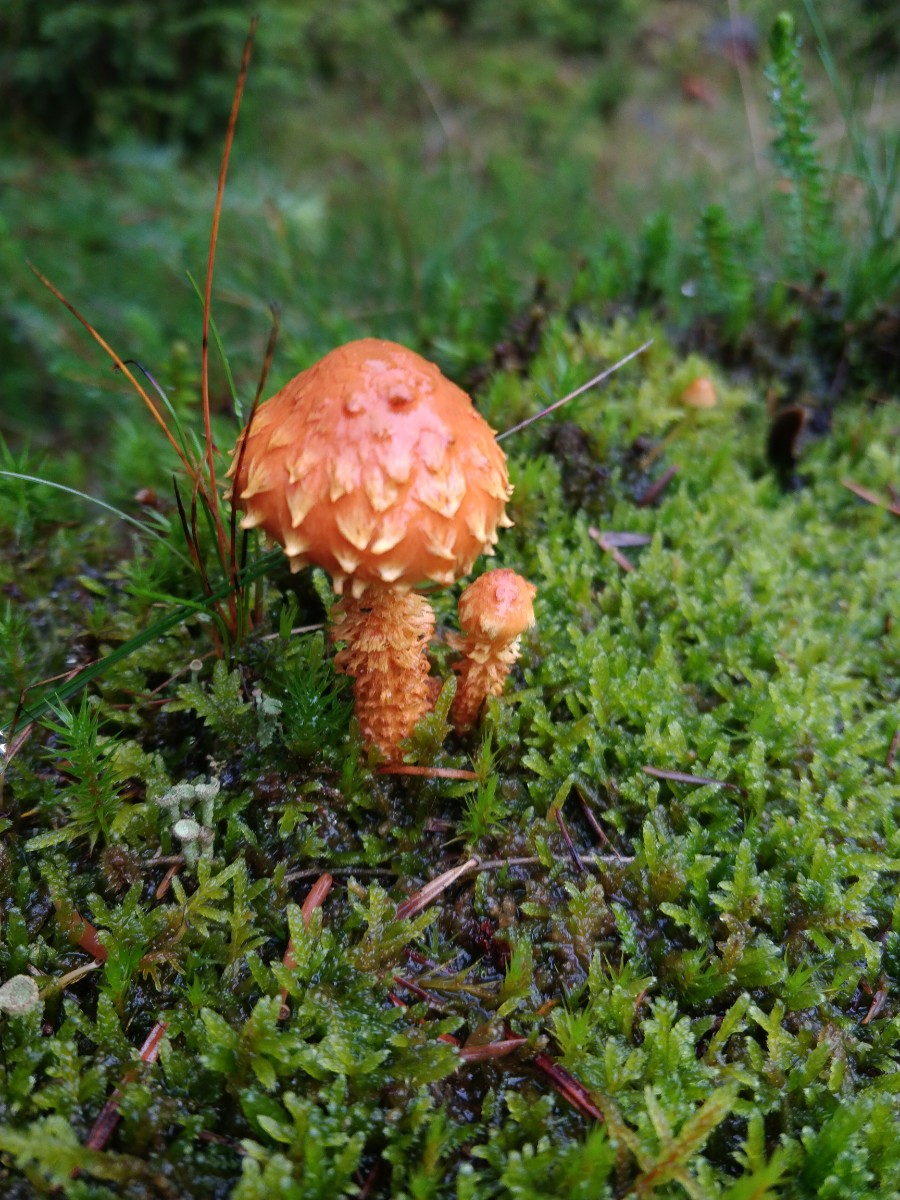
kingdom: Fungi
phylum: Basidiomycota
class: Agaricomycetes
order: Agaricales
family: Strophariaceae
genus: Pholiota
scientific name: Pholiota flammans
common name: flamme-skælhat
